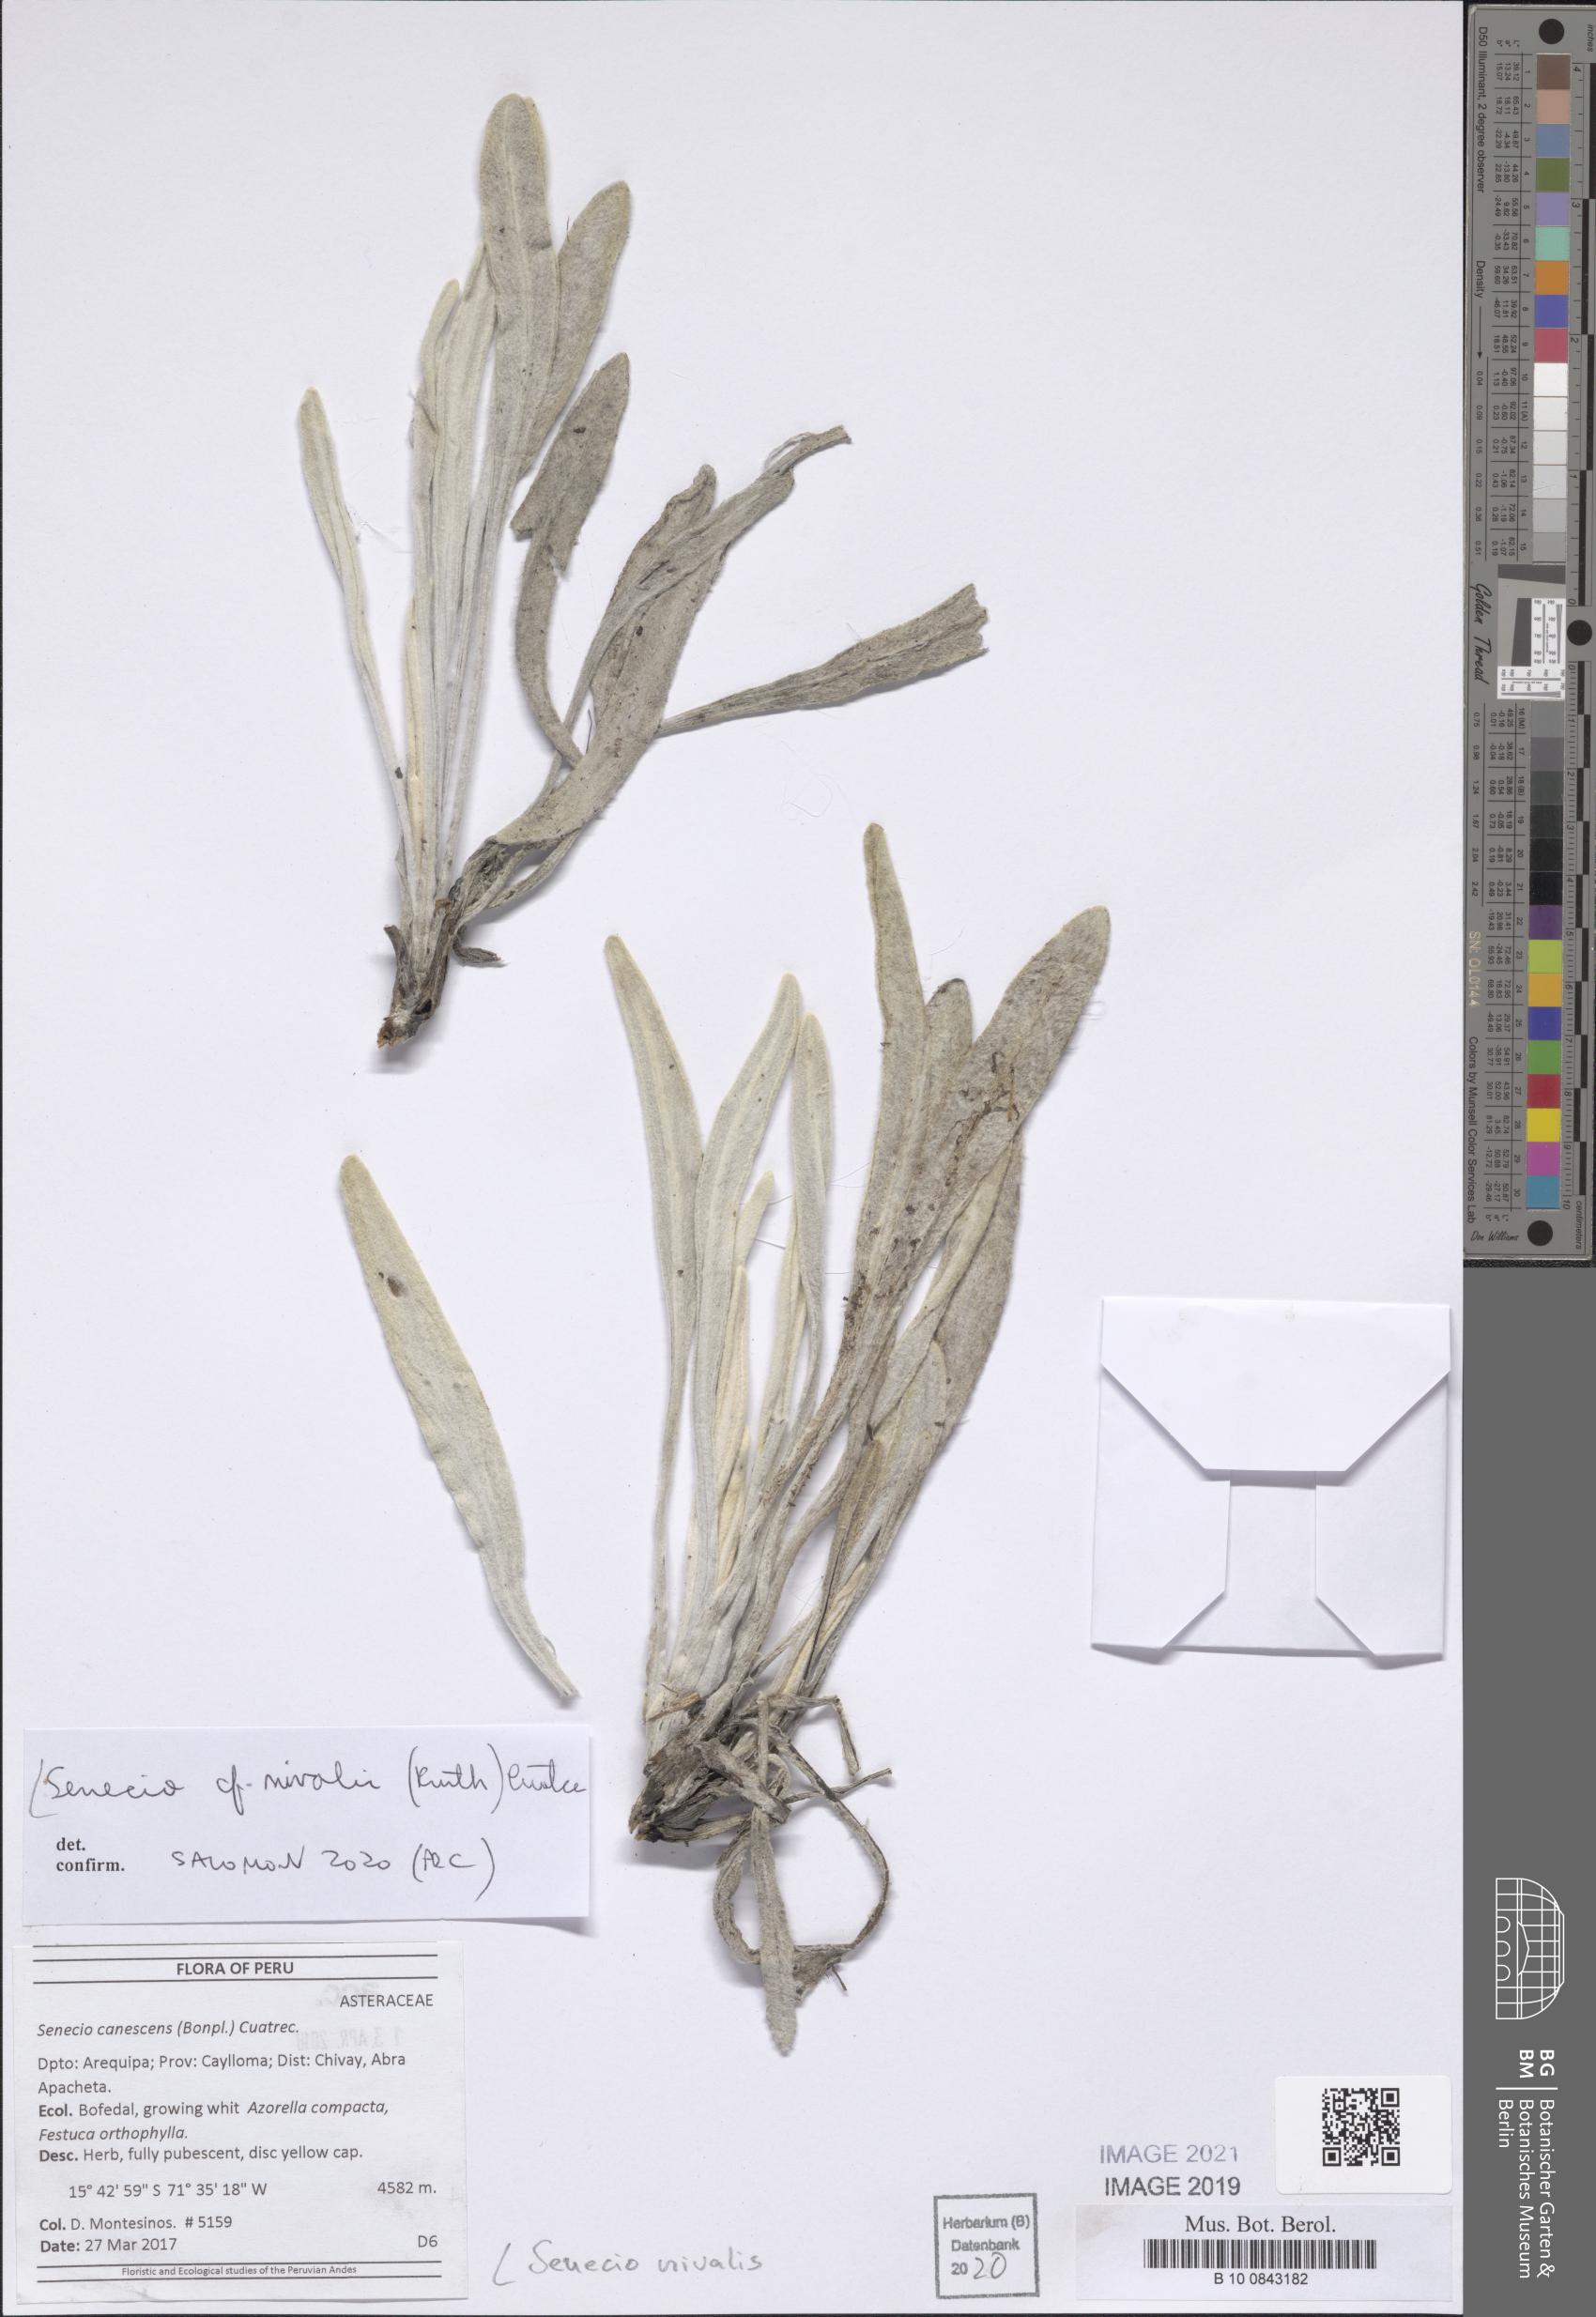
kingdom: Plantae
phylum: Tracheophyta
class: Magnoliopsida
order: Asterales
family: Asteraceae
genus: Culcitium
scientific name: Culcitium nivale
